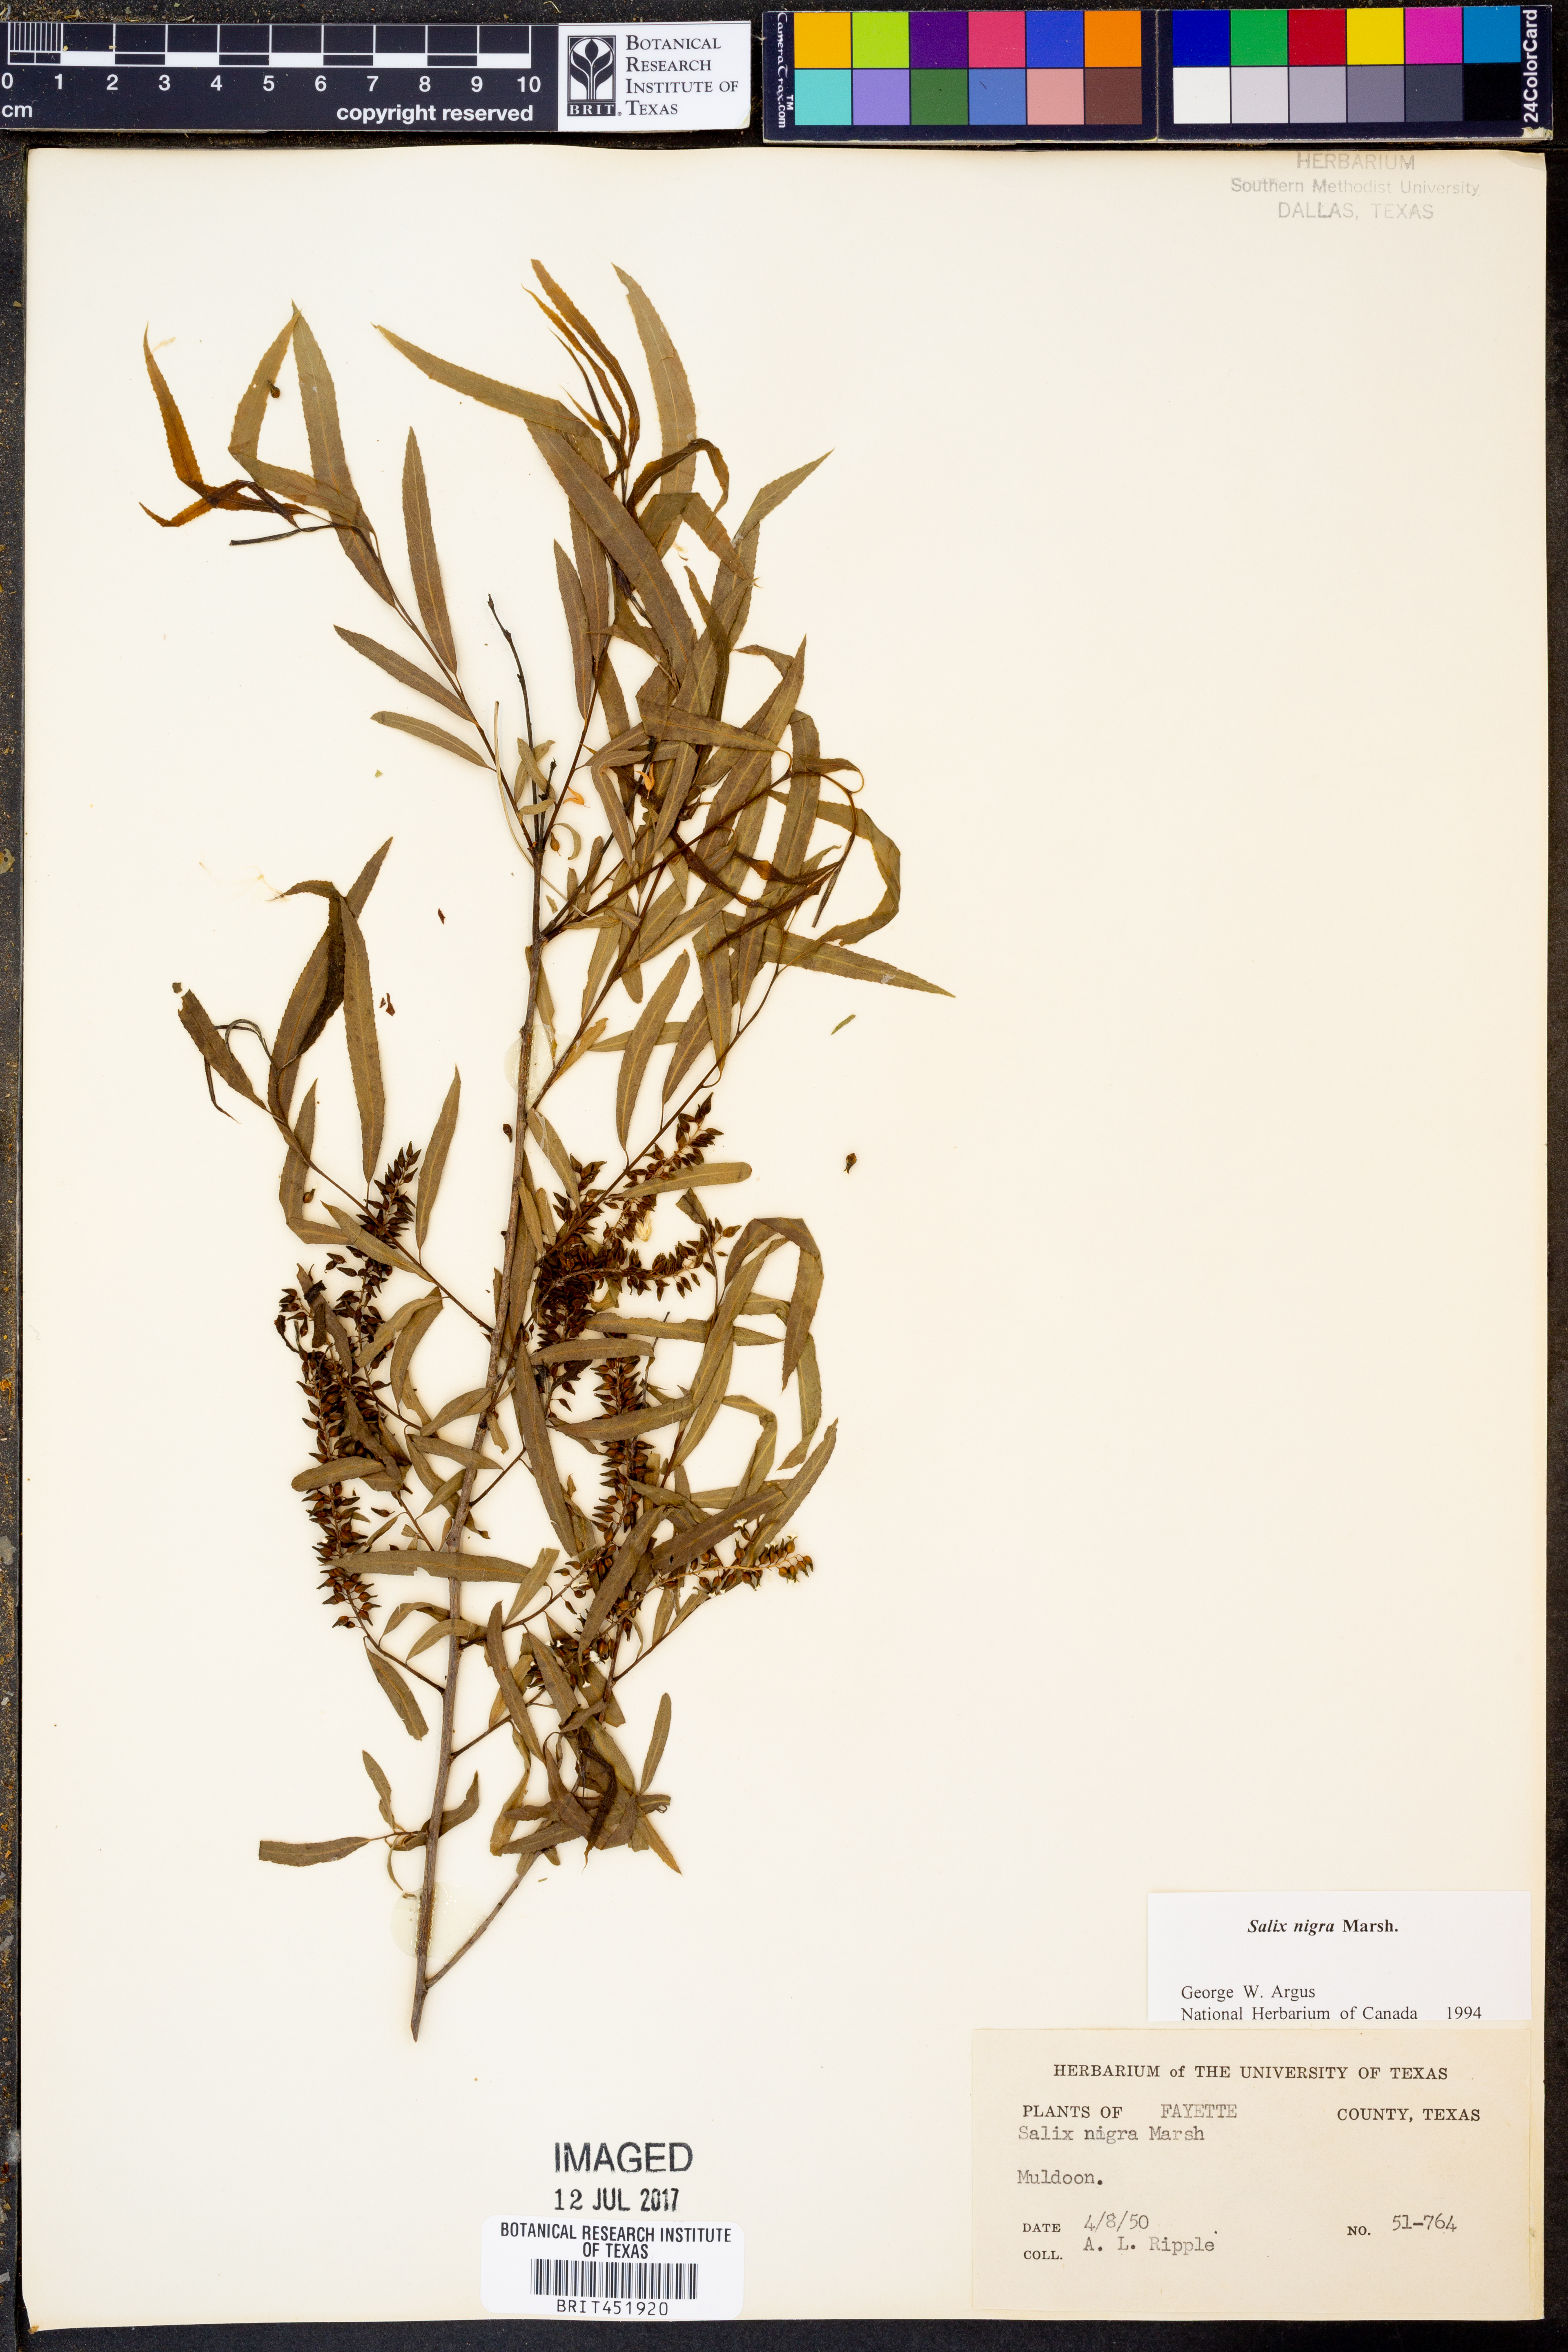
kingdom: Plantae
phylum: Tracheophyta
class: Magnoliopsida
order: Malpighiales
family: Salicaceae
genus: Salix
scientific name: Salix nigra
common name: Black willow
